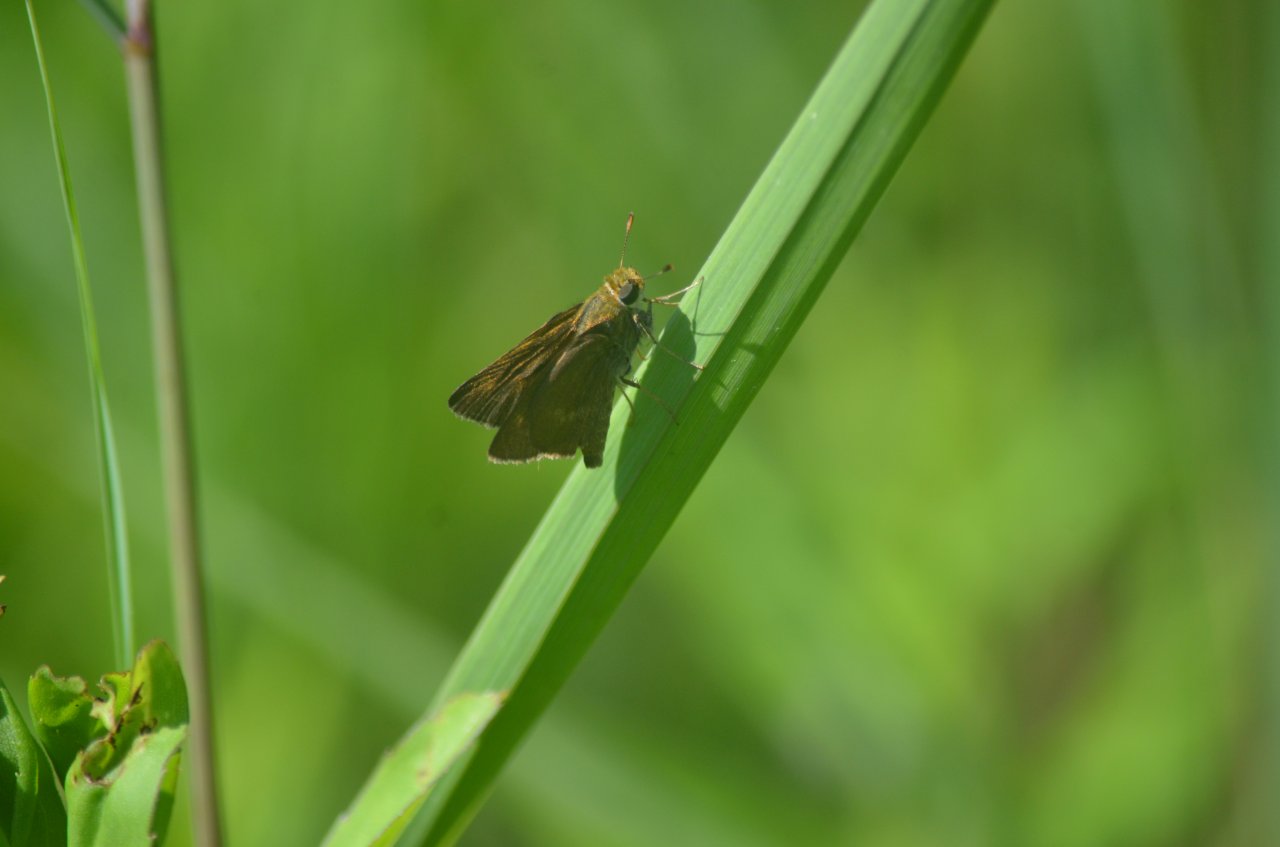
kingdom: Animalia
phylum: Arthropoda
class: Insecta
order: Lepidoptera
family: Hesperiidae
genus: Euphyes
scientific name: Euphyes vestris
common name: Dun Skipper
